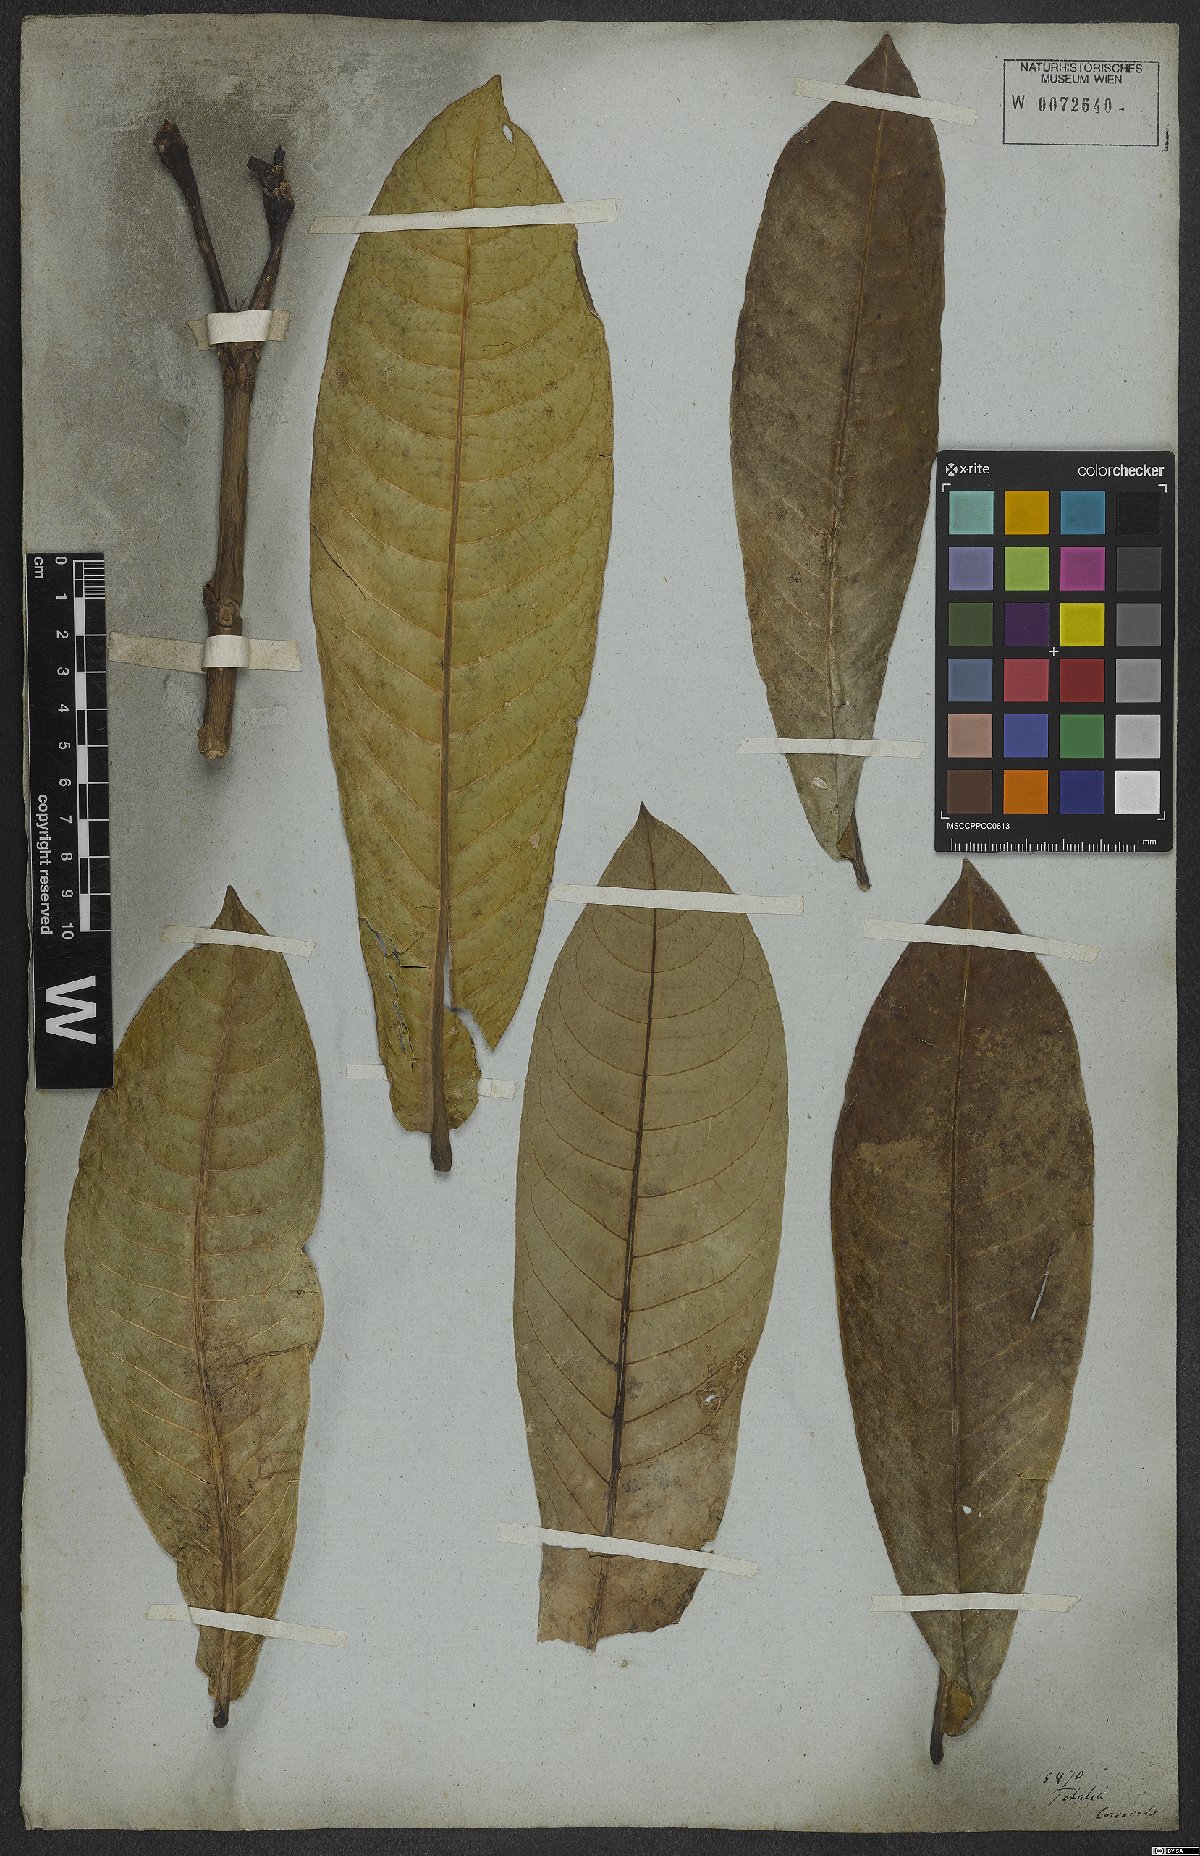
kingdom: Plantae
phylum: Tracheophyta
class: Magnoliopsida
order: Gentianales
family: Rubiaceae
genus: Rudgea
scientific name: Rudgea macrophylla
